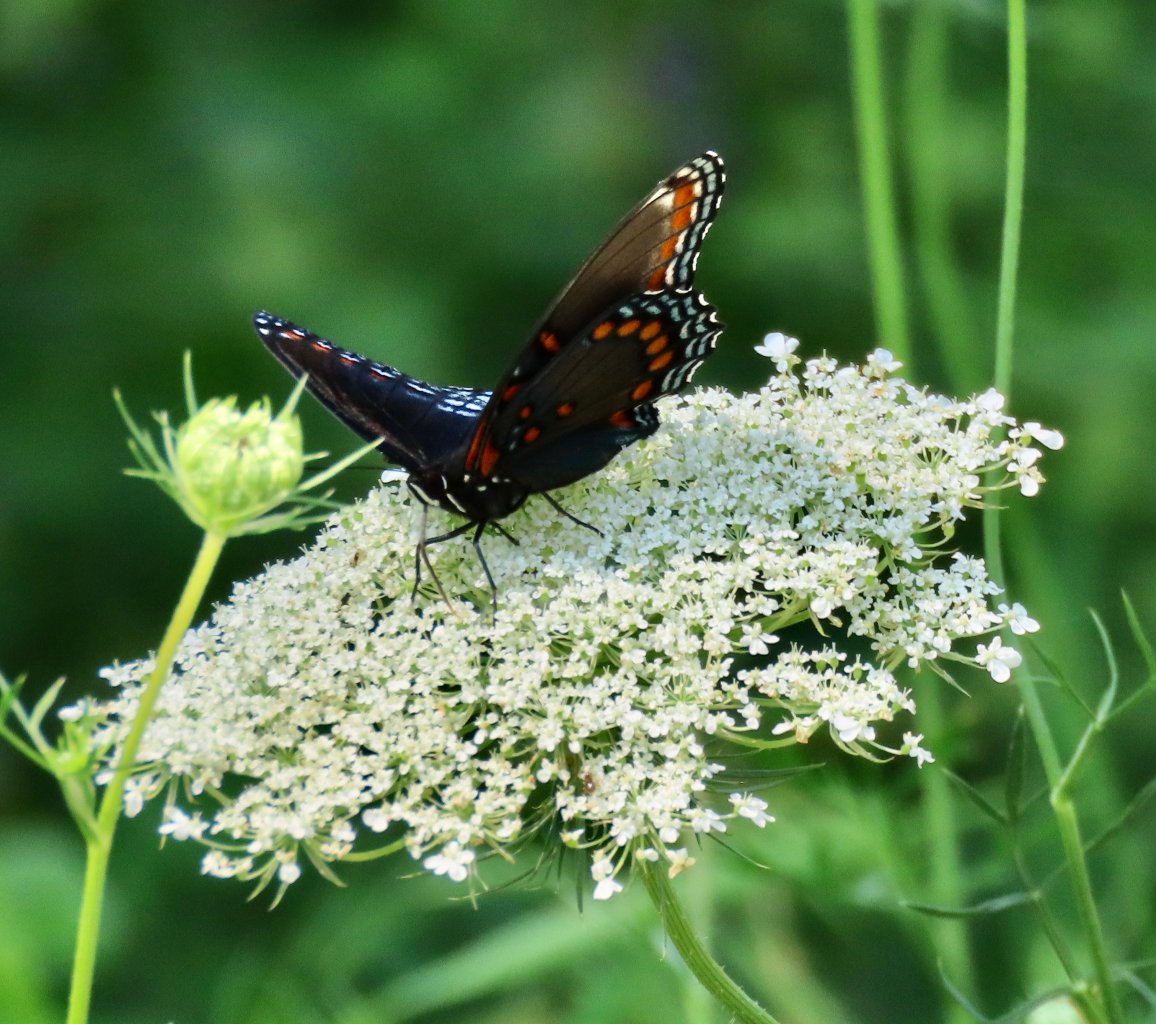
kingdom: Animalia
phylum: Arthropoda
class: Insecta
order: Lepidoptera
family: Nymphalidae
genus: Limenitis
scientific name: Limenitis arthemis
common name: Red-spotted Admiral
